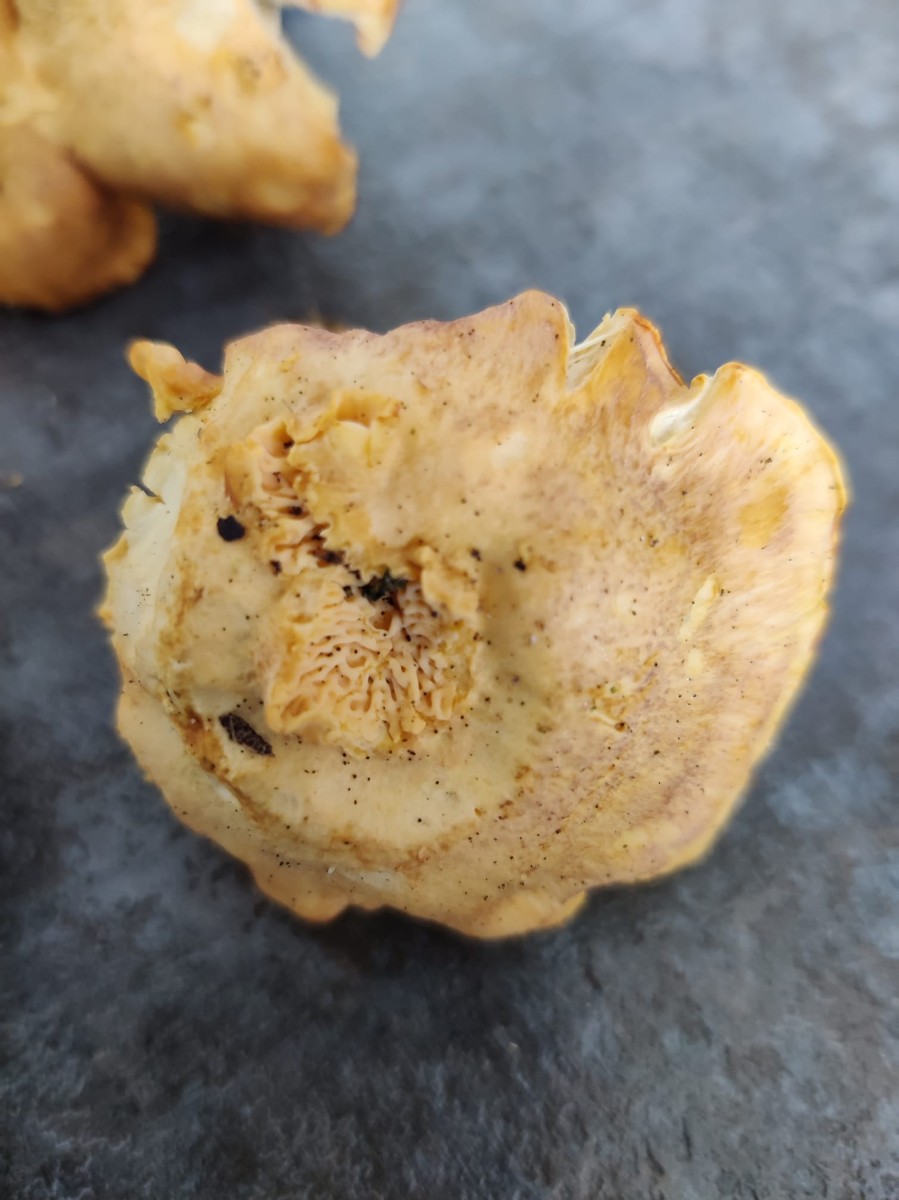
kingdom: Fungi
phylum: Basidiomycota
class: Agaricomycetes
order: Cantharellales
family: Hydnaceae
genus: Cantharellus
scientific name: Cantharellus amethysteus
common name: ametyst-kantarel
